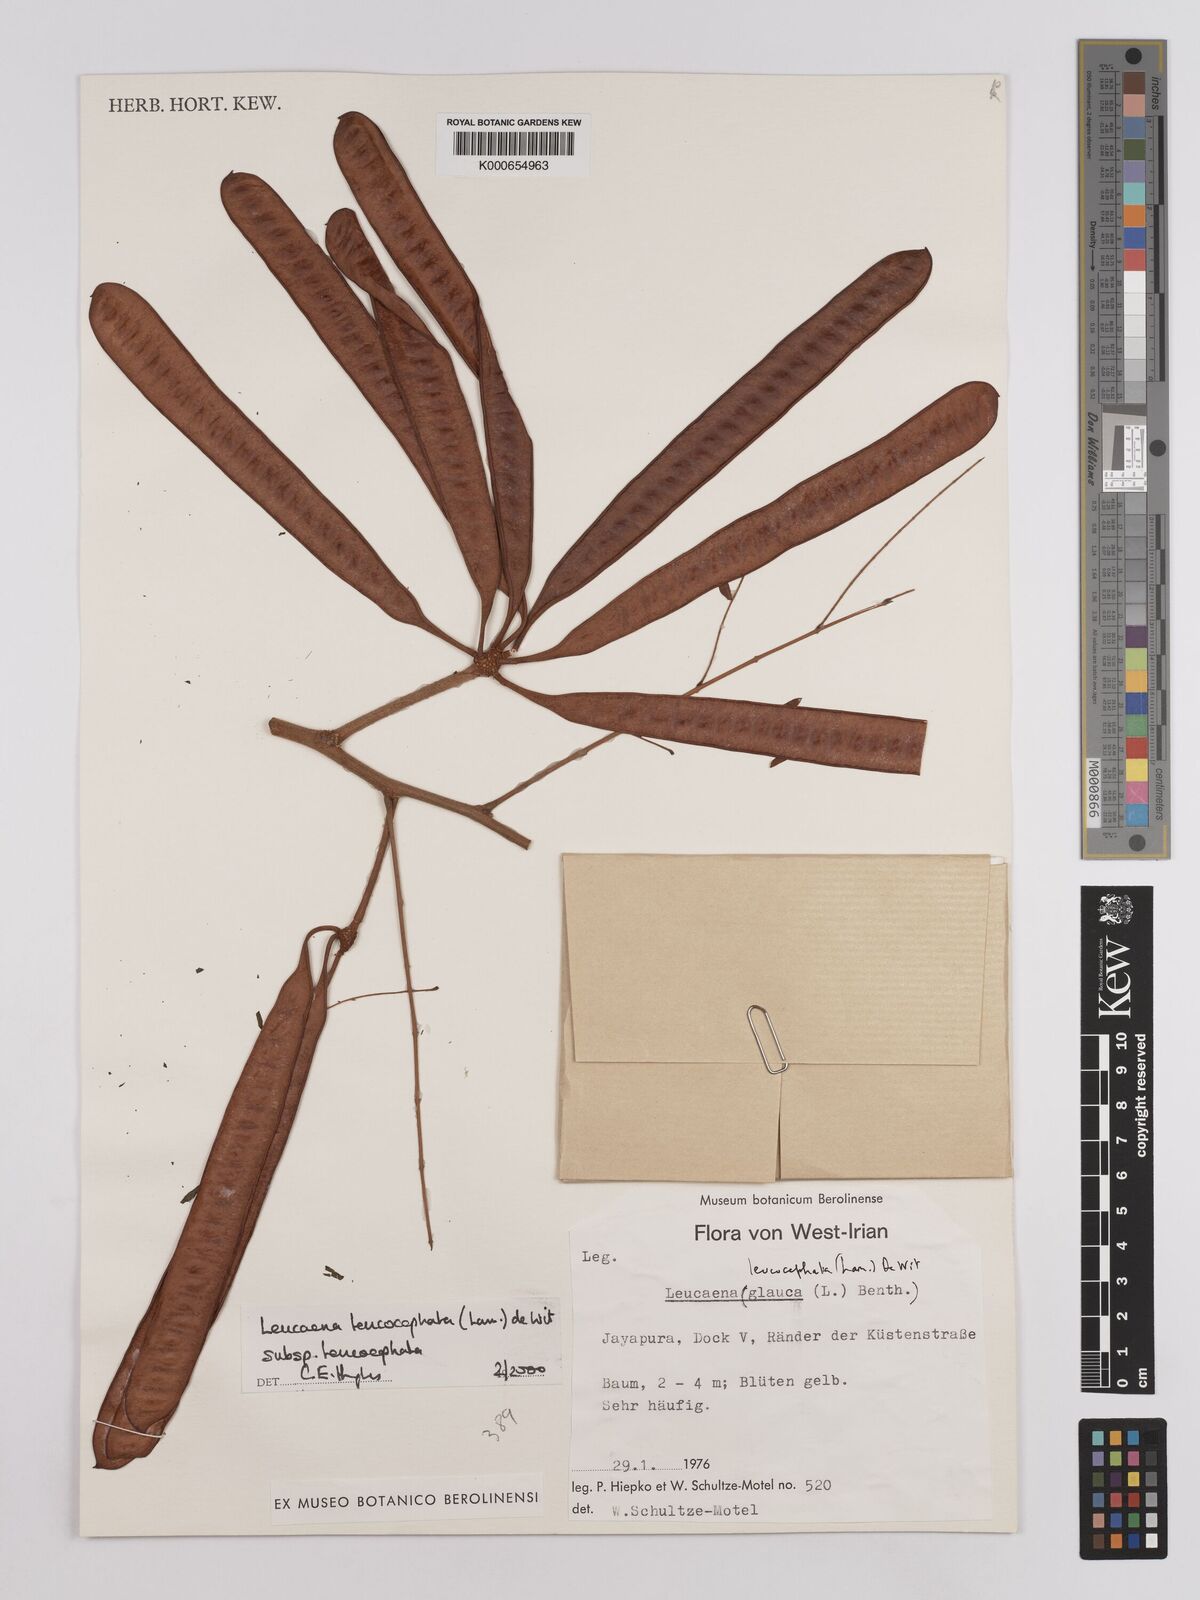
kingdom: Plantae
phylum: Tracheophyta
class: Magnoliopsida
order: Fabales
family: Fabaceae
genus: Leucaena
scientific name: Leucaena leucocephala
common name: White leadtree
